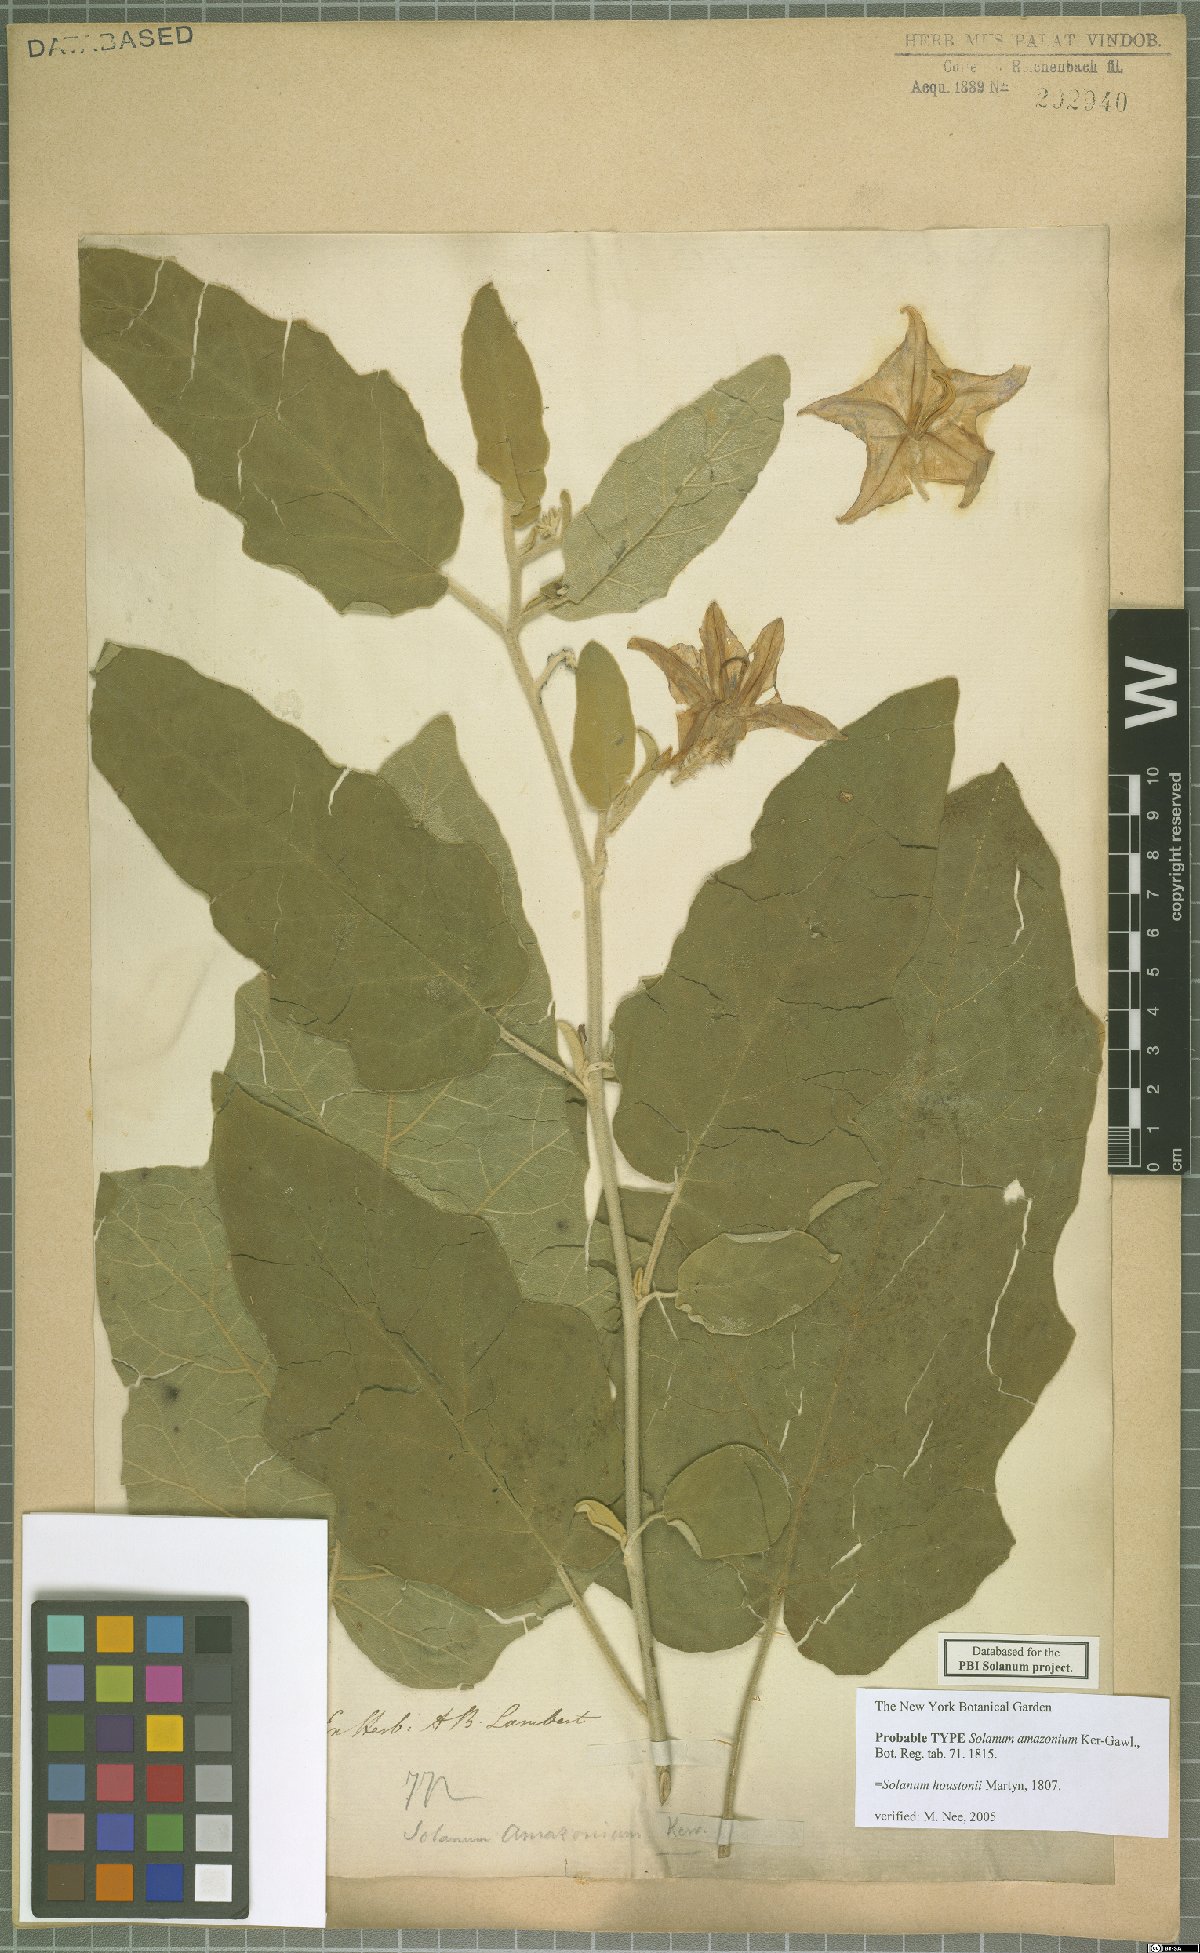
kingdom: Plantae
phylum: Tracheophyta
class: Magnoliopsida
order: Solanales
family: Solanaceae
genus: Solanum
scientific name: Solanum houstonii
